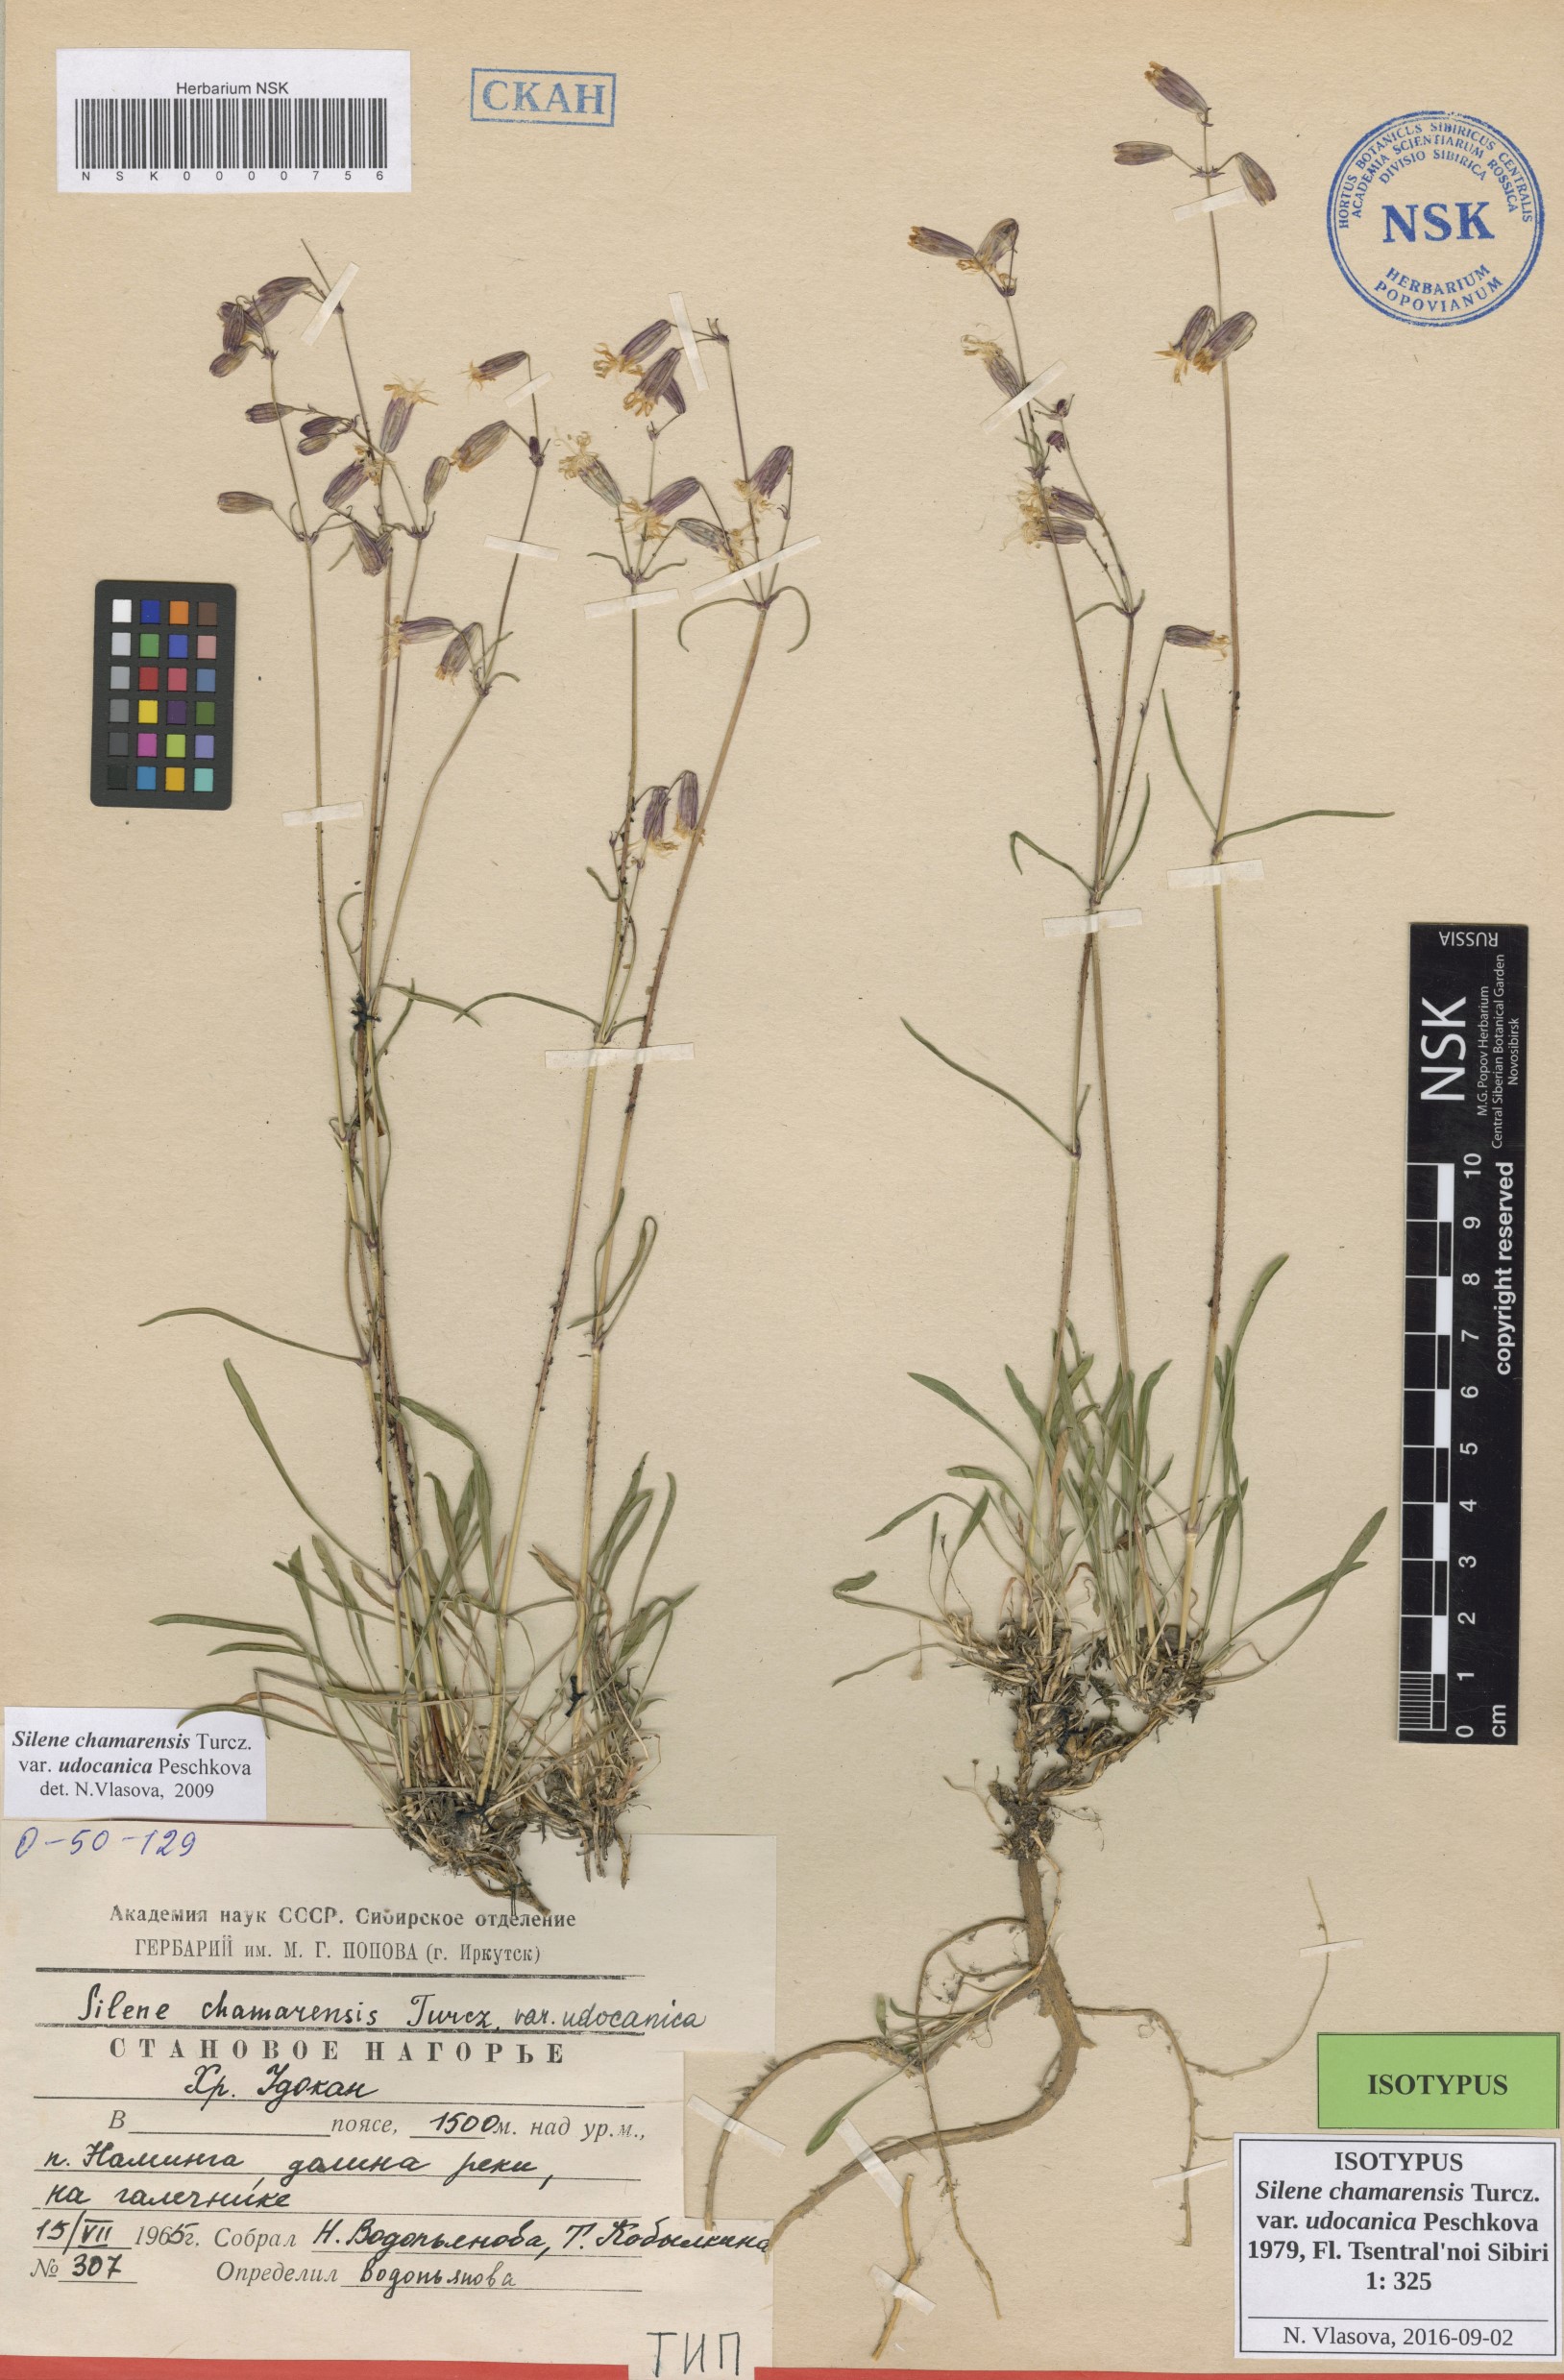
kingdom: Plantae
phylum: Tracheophyta
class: Magnoliopsida
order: Caryophyllales
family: Caryophyllaceae
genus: Silene
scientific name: Silene chamarensis
